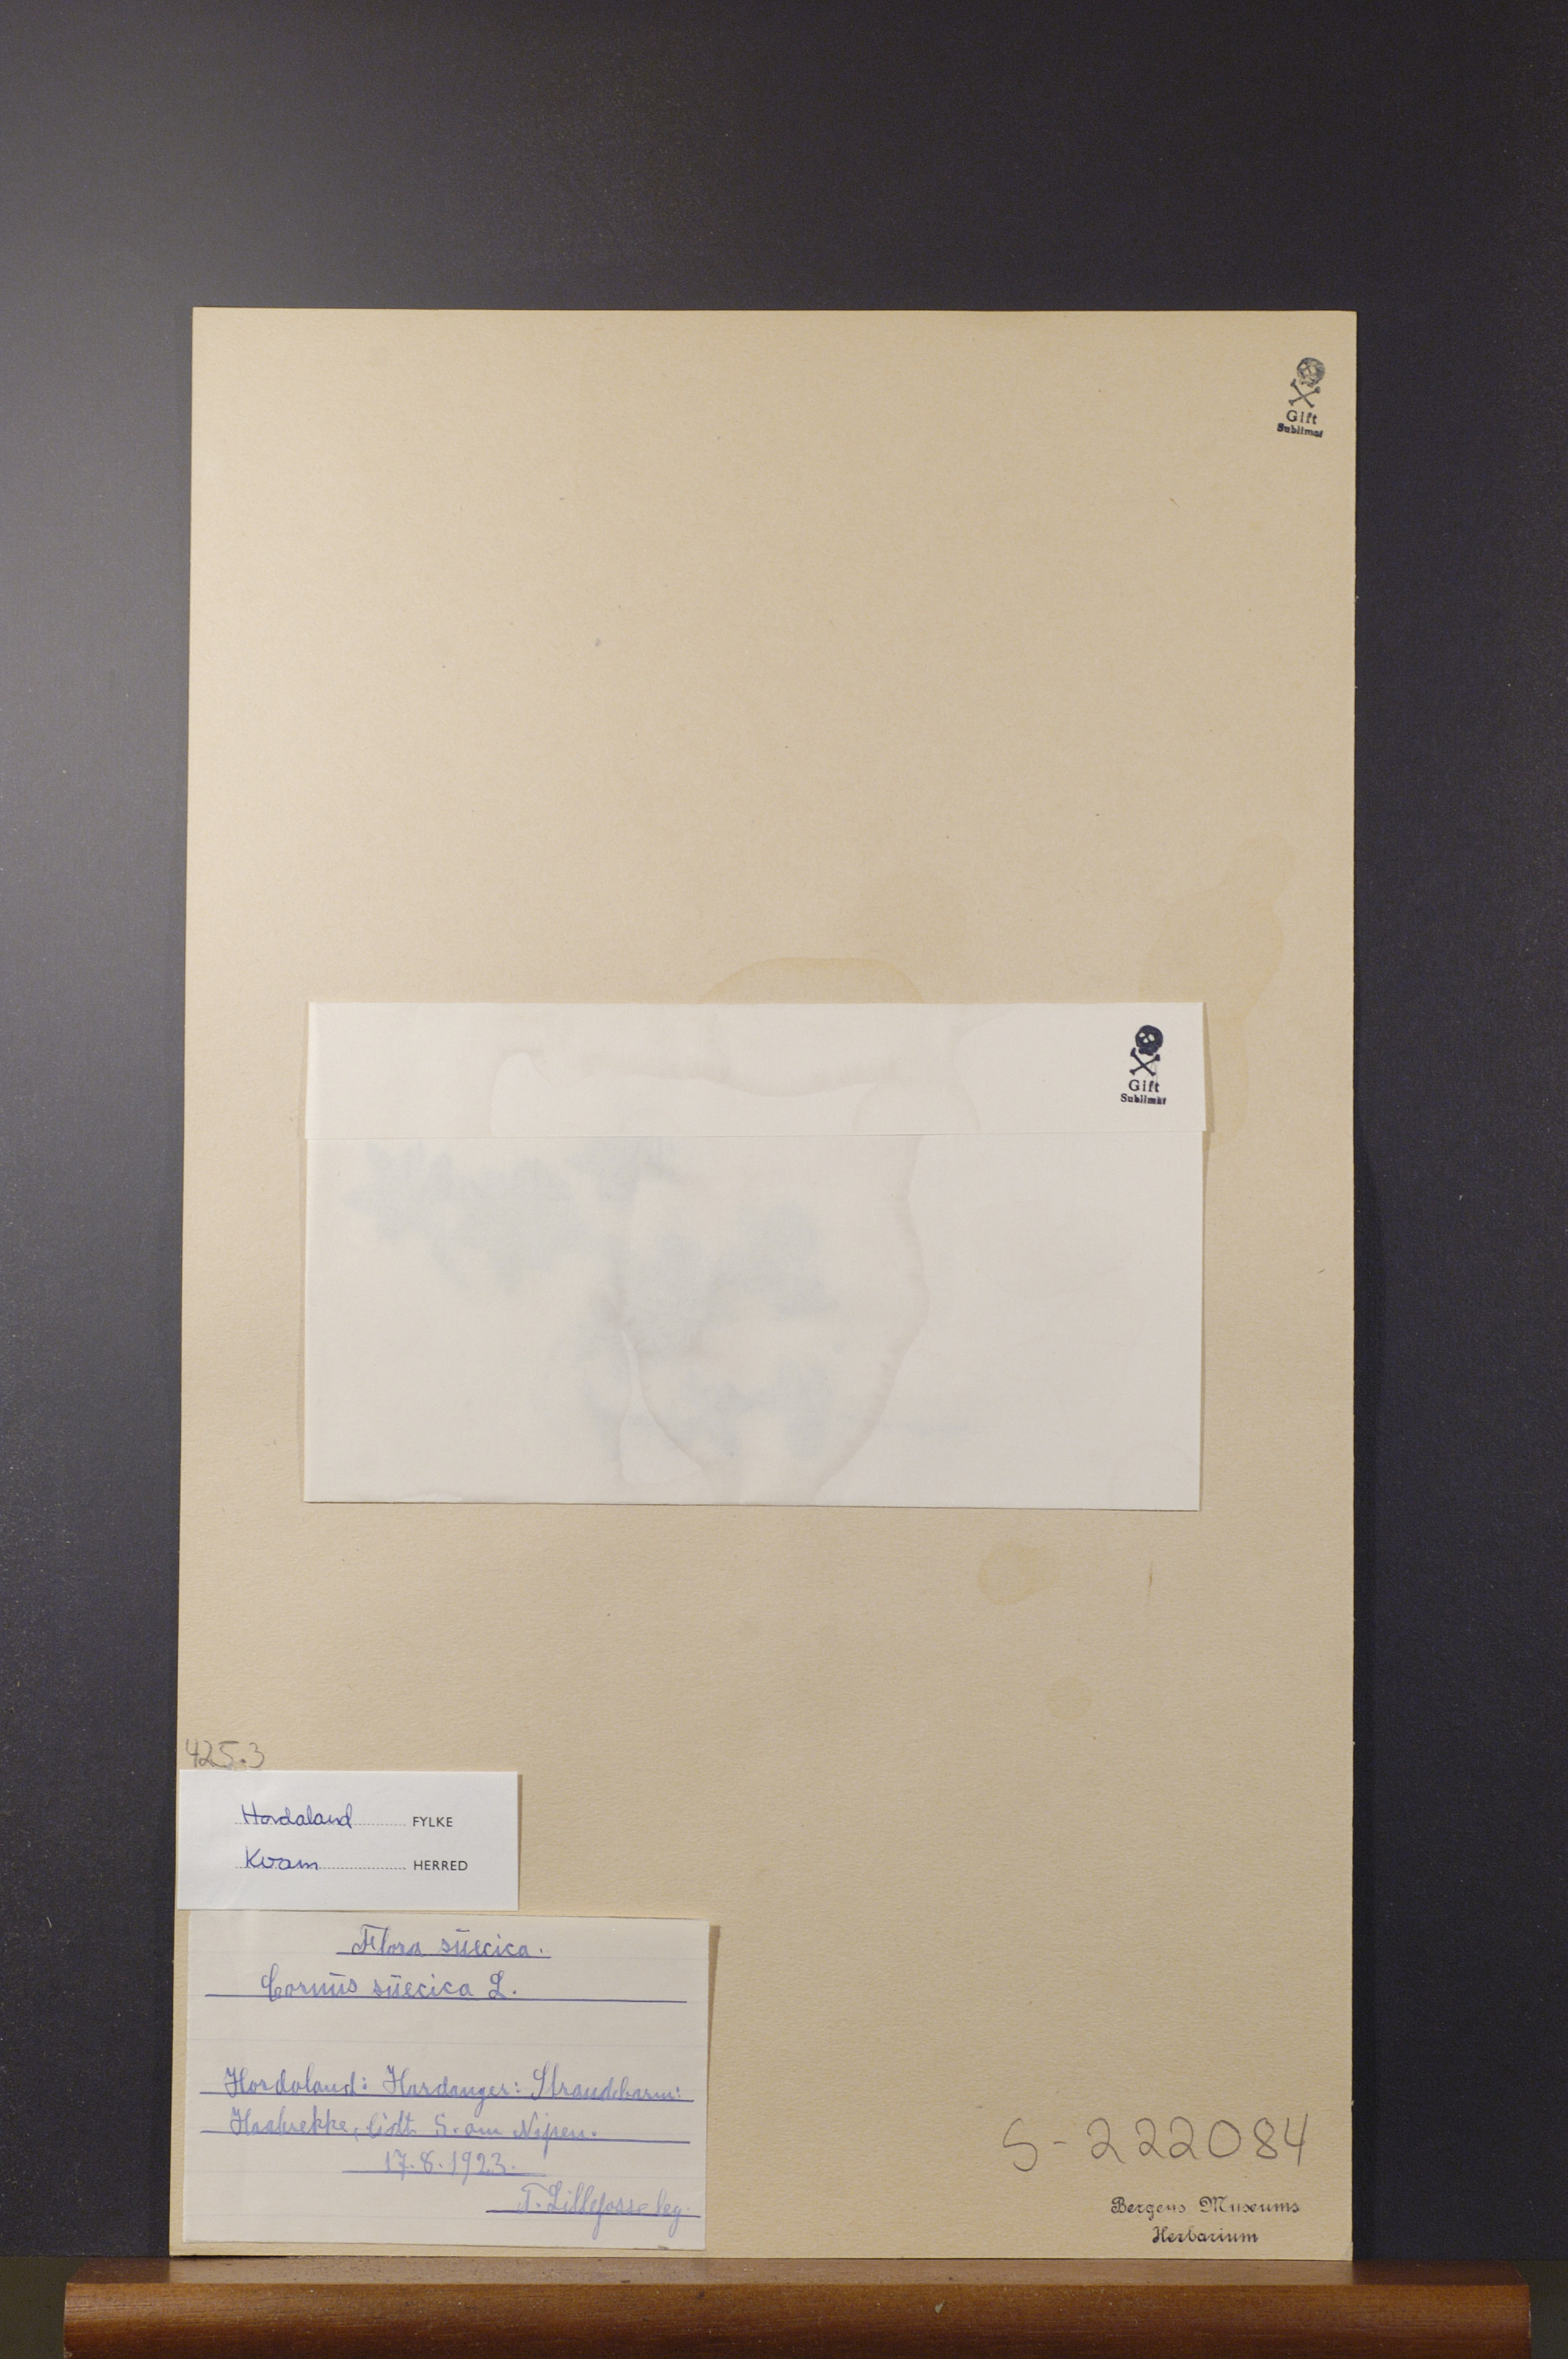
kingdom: Plantae
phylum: Tracheophyta
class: Magnoliopsida
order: Cornales
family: Cornaceae
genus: Cornus
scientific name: Cornus suecica
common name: Dwarf cornel
